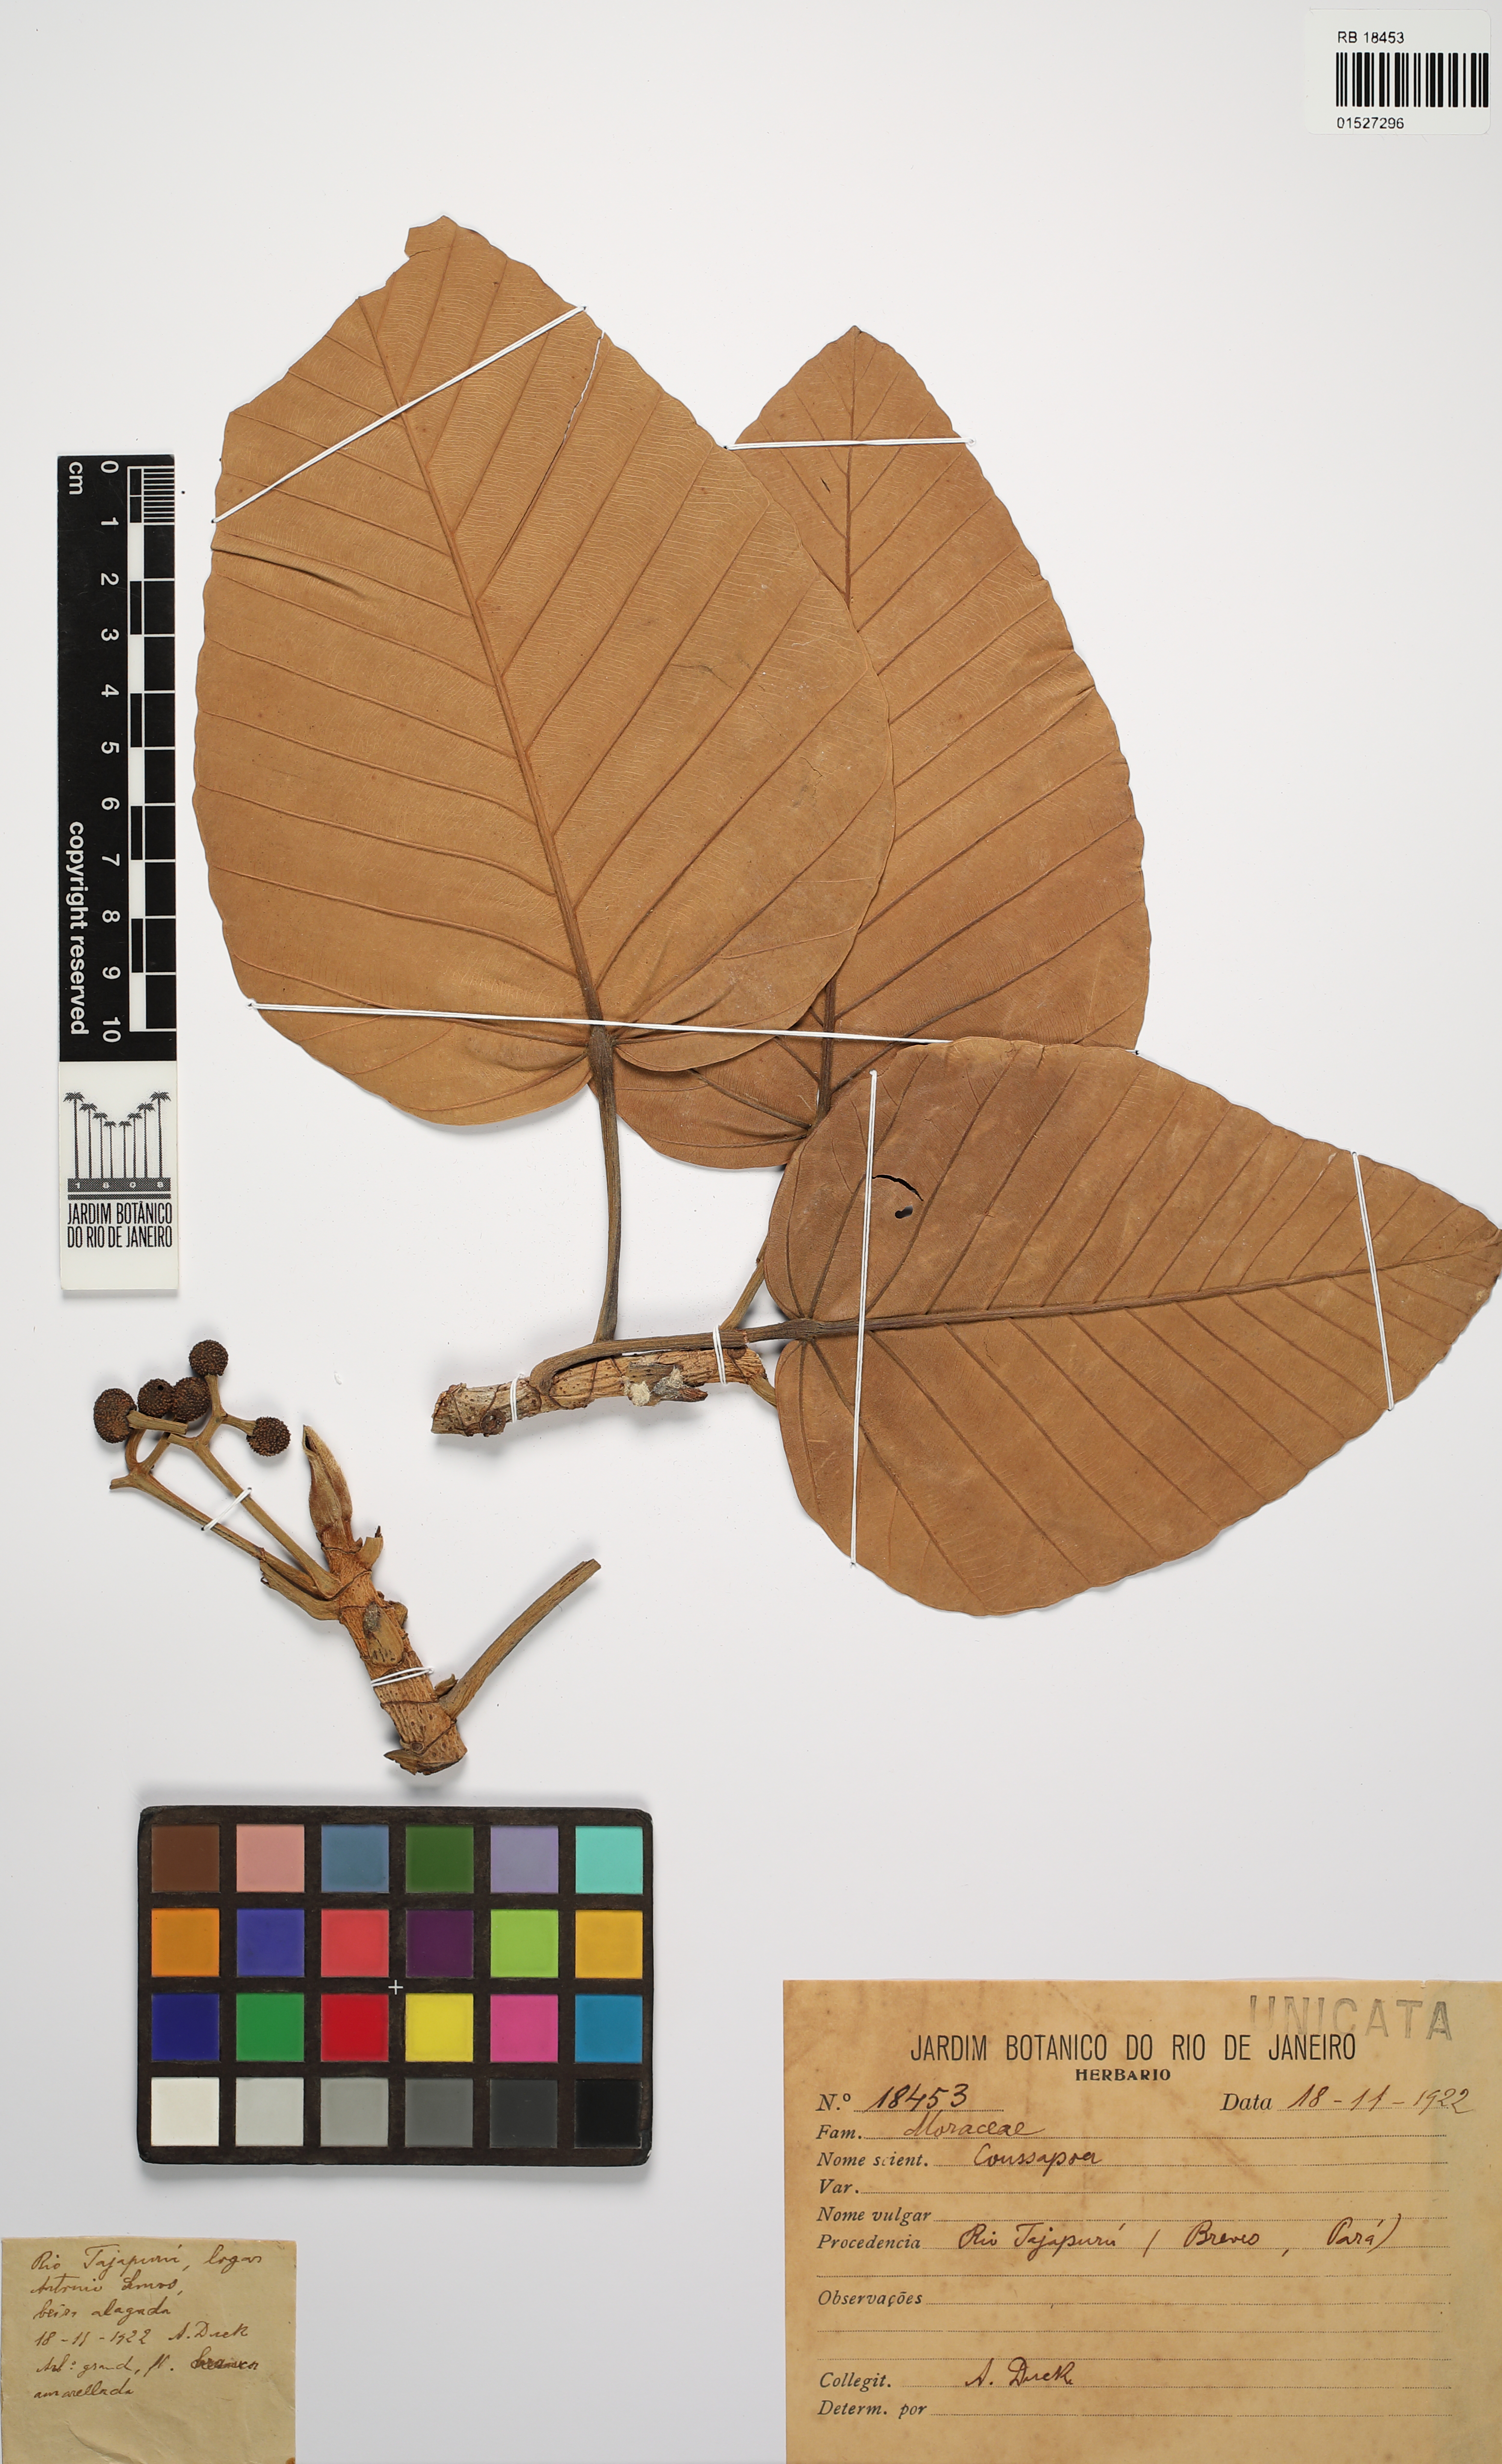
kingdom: Plantae
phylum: Tracheophyta
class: Magnoliopsida
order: Rosales
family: Urticaceae
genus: Coussapoa
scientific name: Coussapoa
